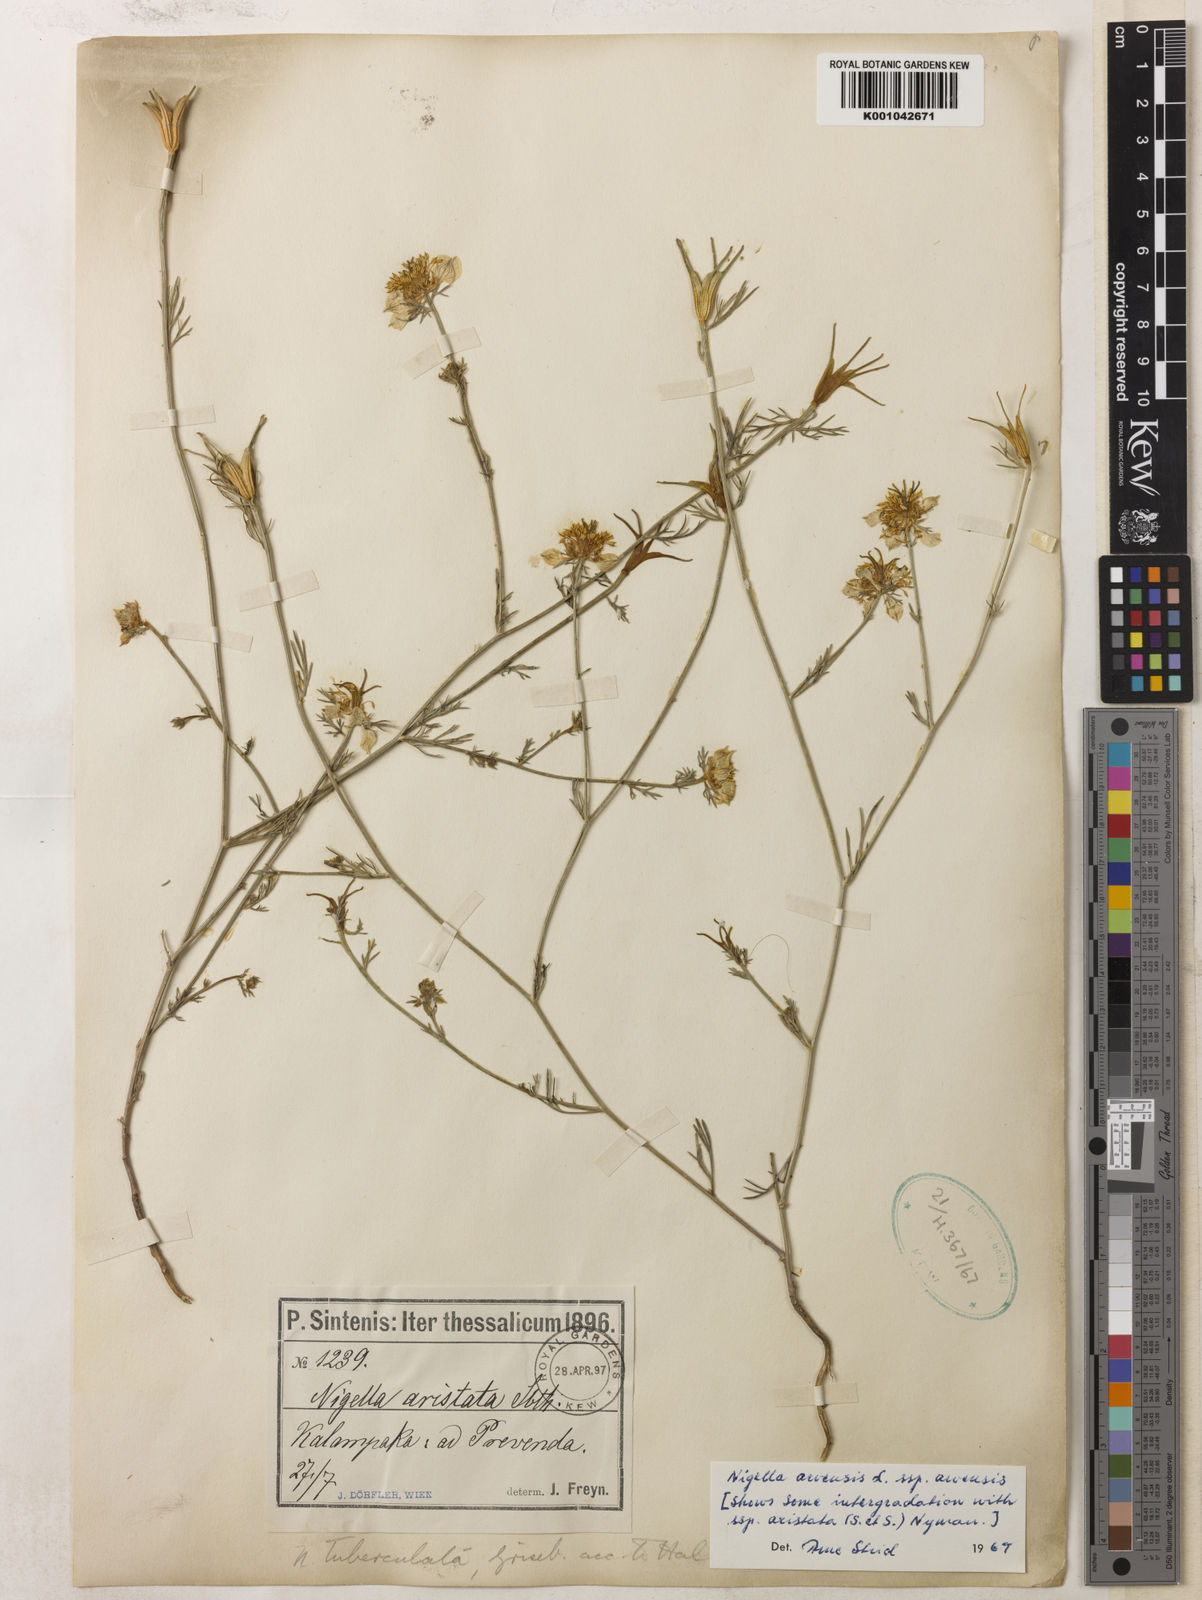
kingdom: Plantae
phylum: Tracheophyta
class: Magnoliopsida
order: Ranunculales
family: Ranunculaceae
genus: Nigella
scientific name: Nigella arvensis
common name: Wild fennel-flower
